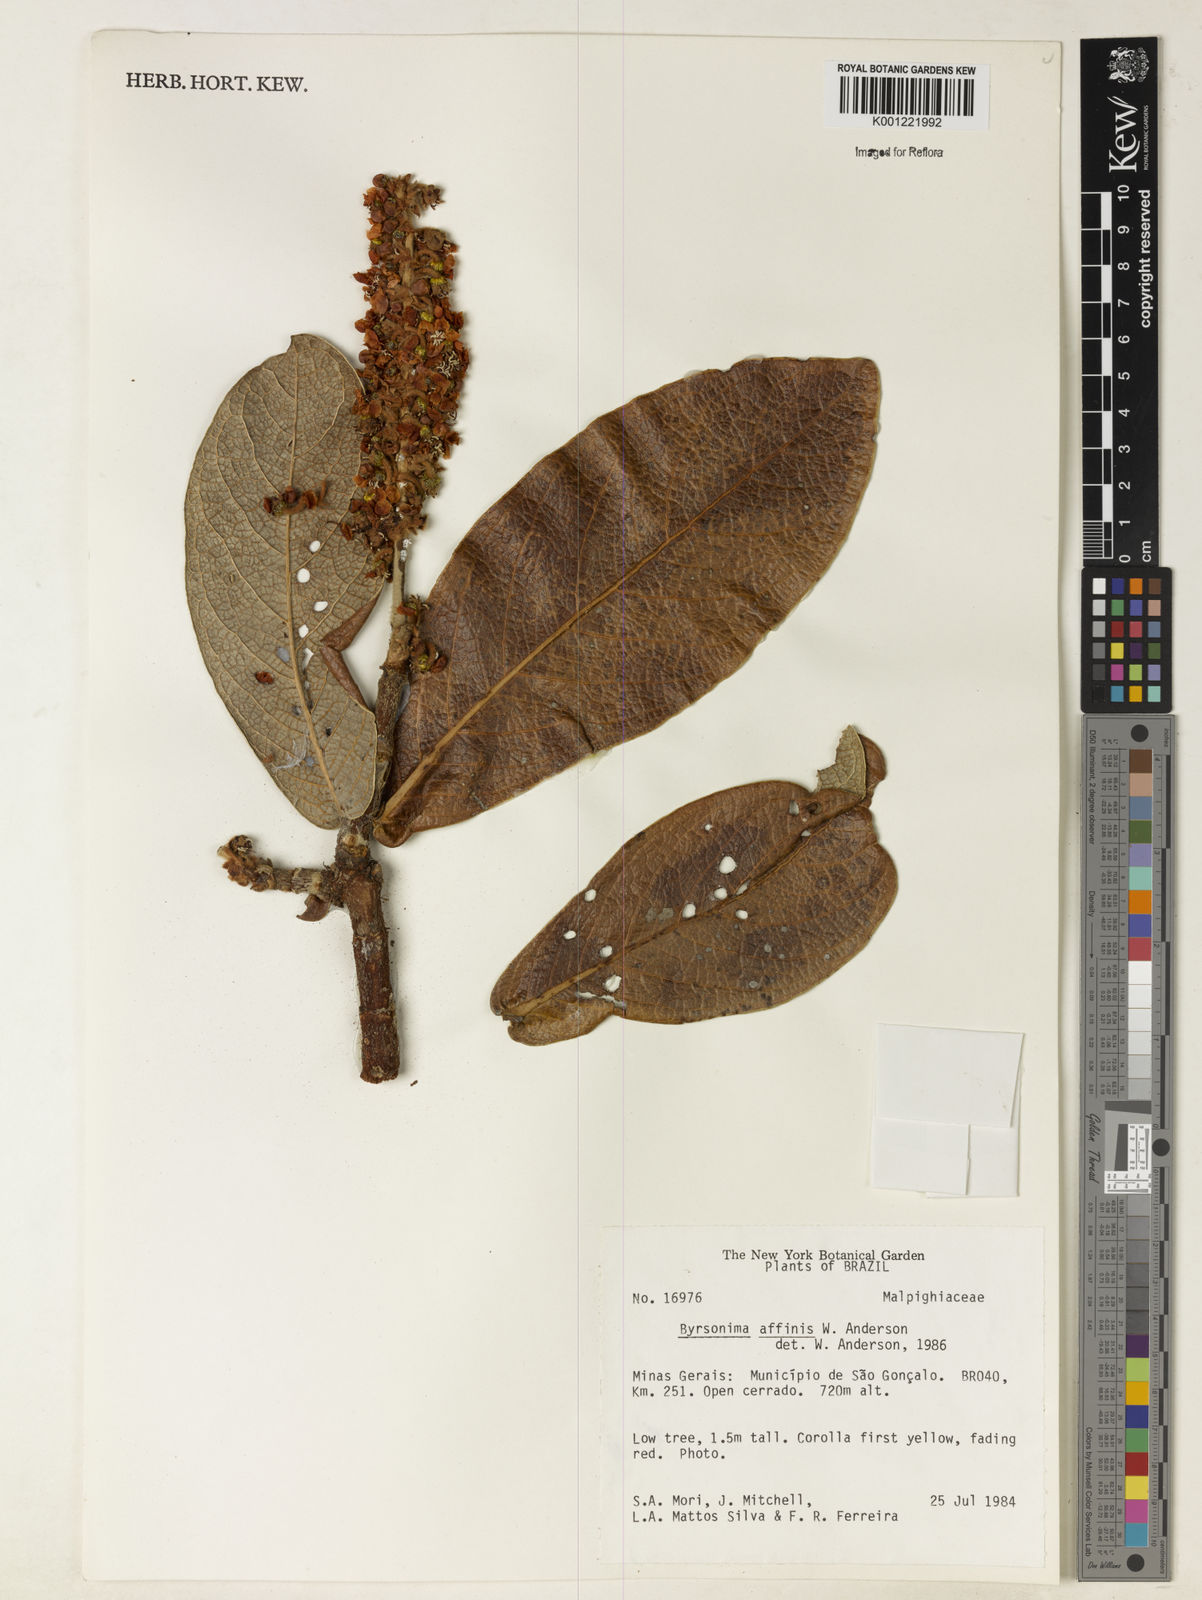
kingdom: Plantae
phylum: Tracheophyta
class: Magnoliopsida
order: Malpighiales
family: Malpighiaceae
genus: Byrsonima
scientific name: Byrsonima affinis
